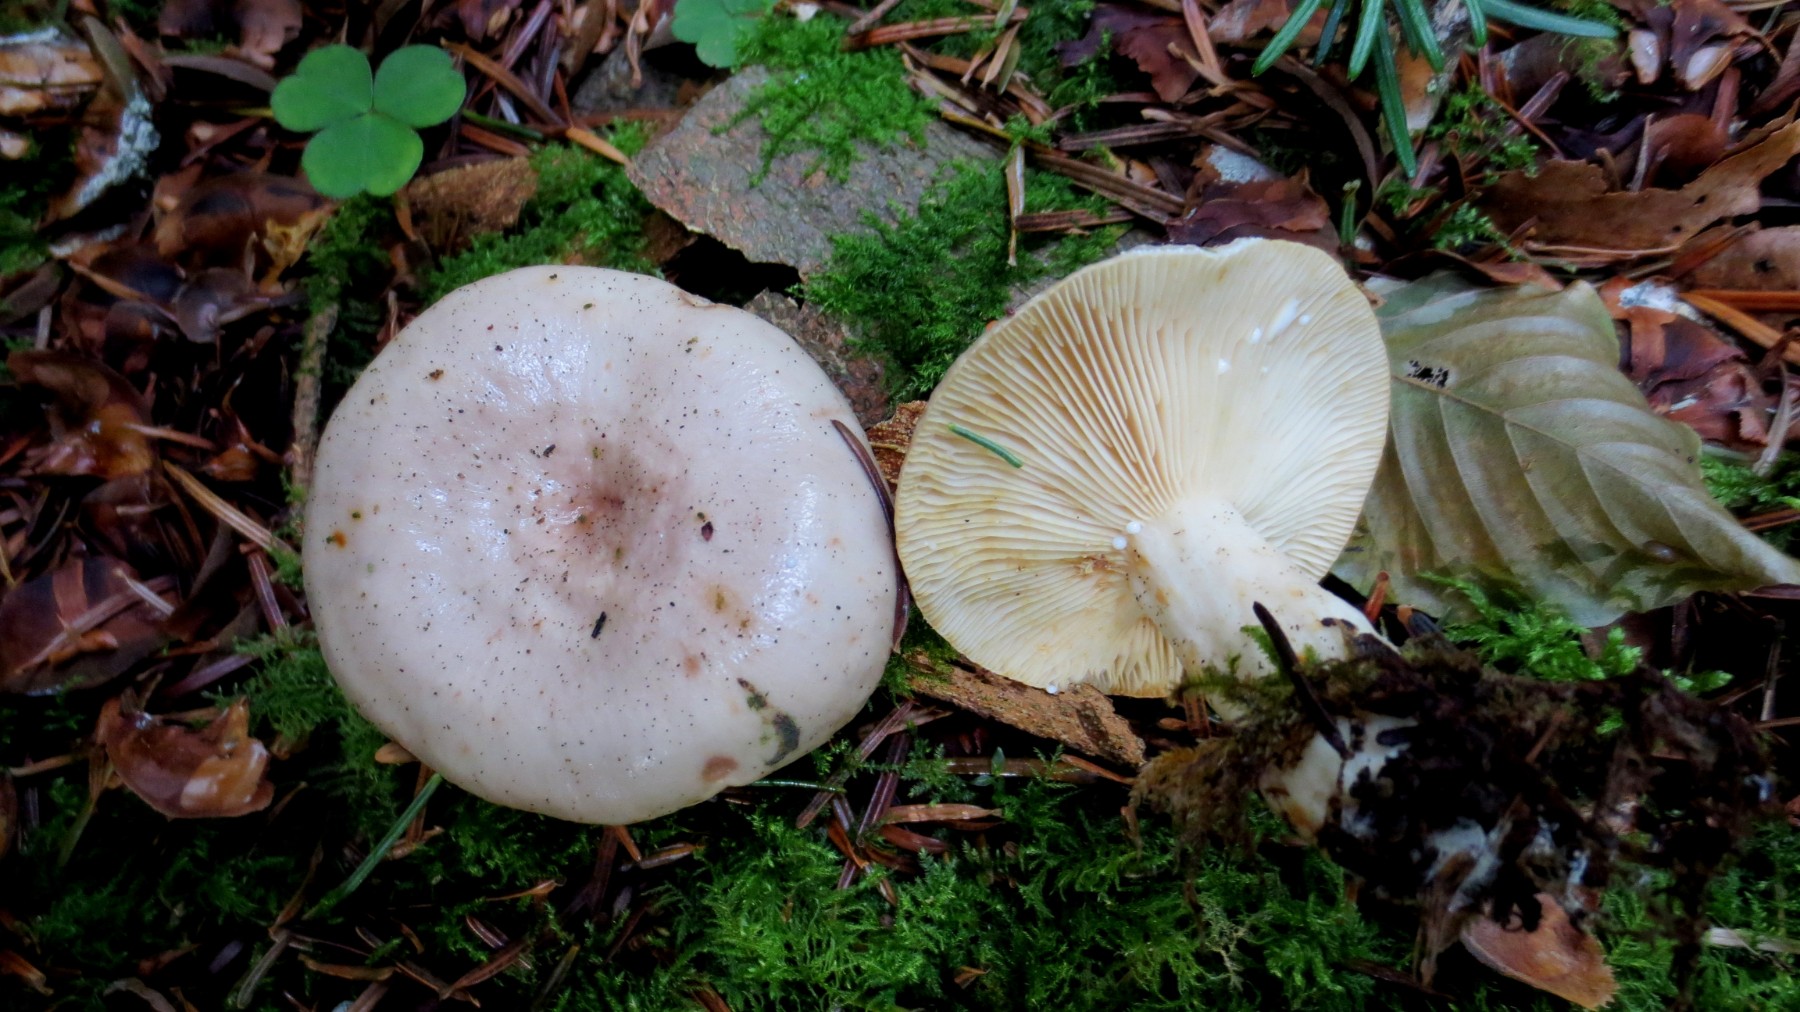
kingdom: Fungi
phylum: Basidiomycota
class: Agaricomycetes
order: Russulales
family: Russulaceae
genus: Lactarius
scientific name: Lactarius albocarneus
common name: ædelgran-mælkehat
